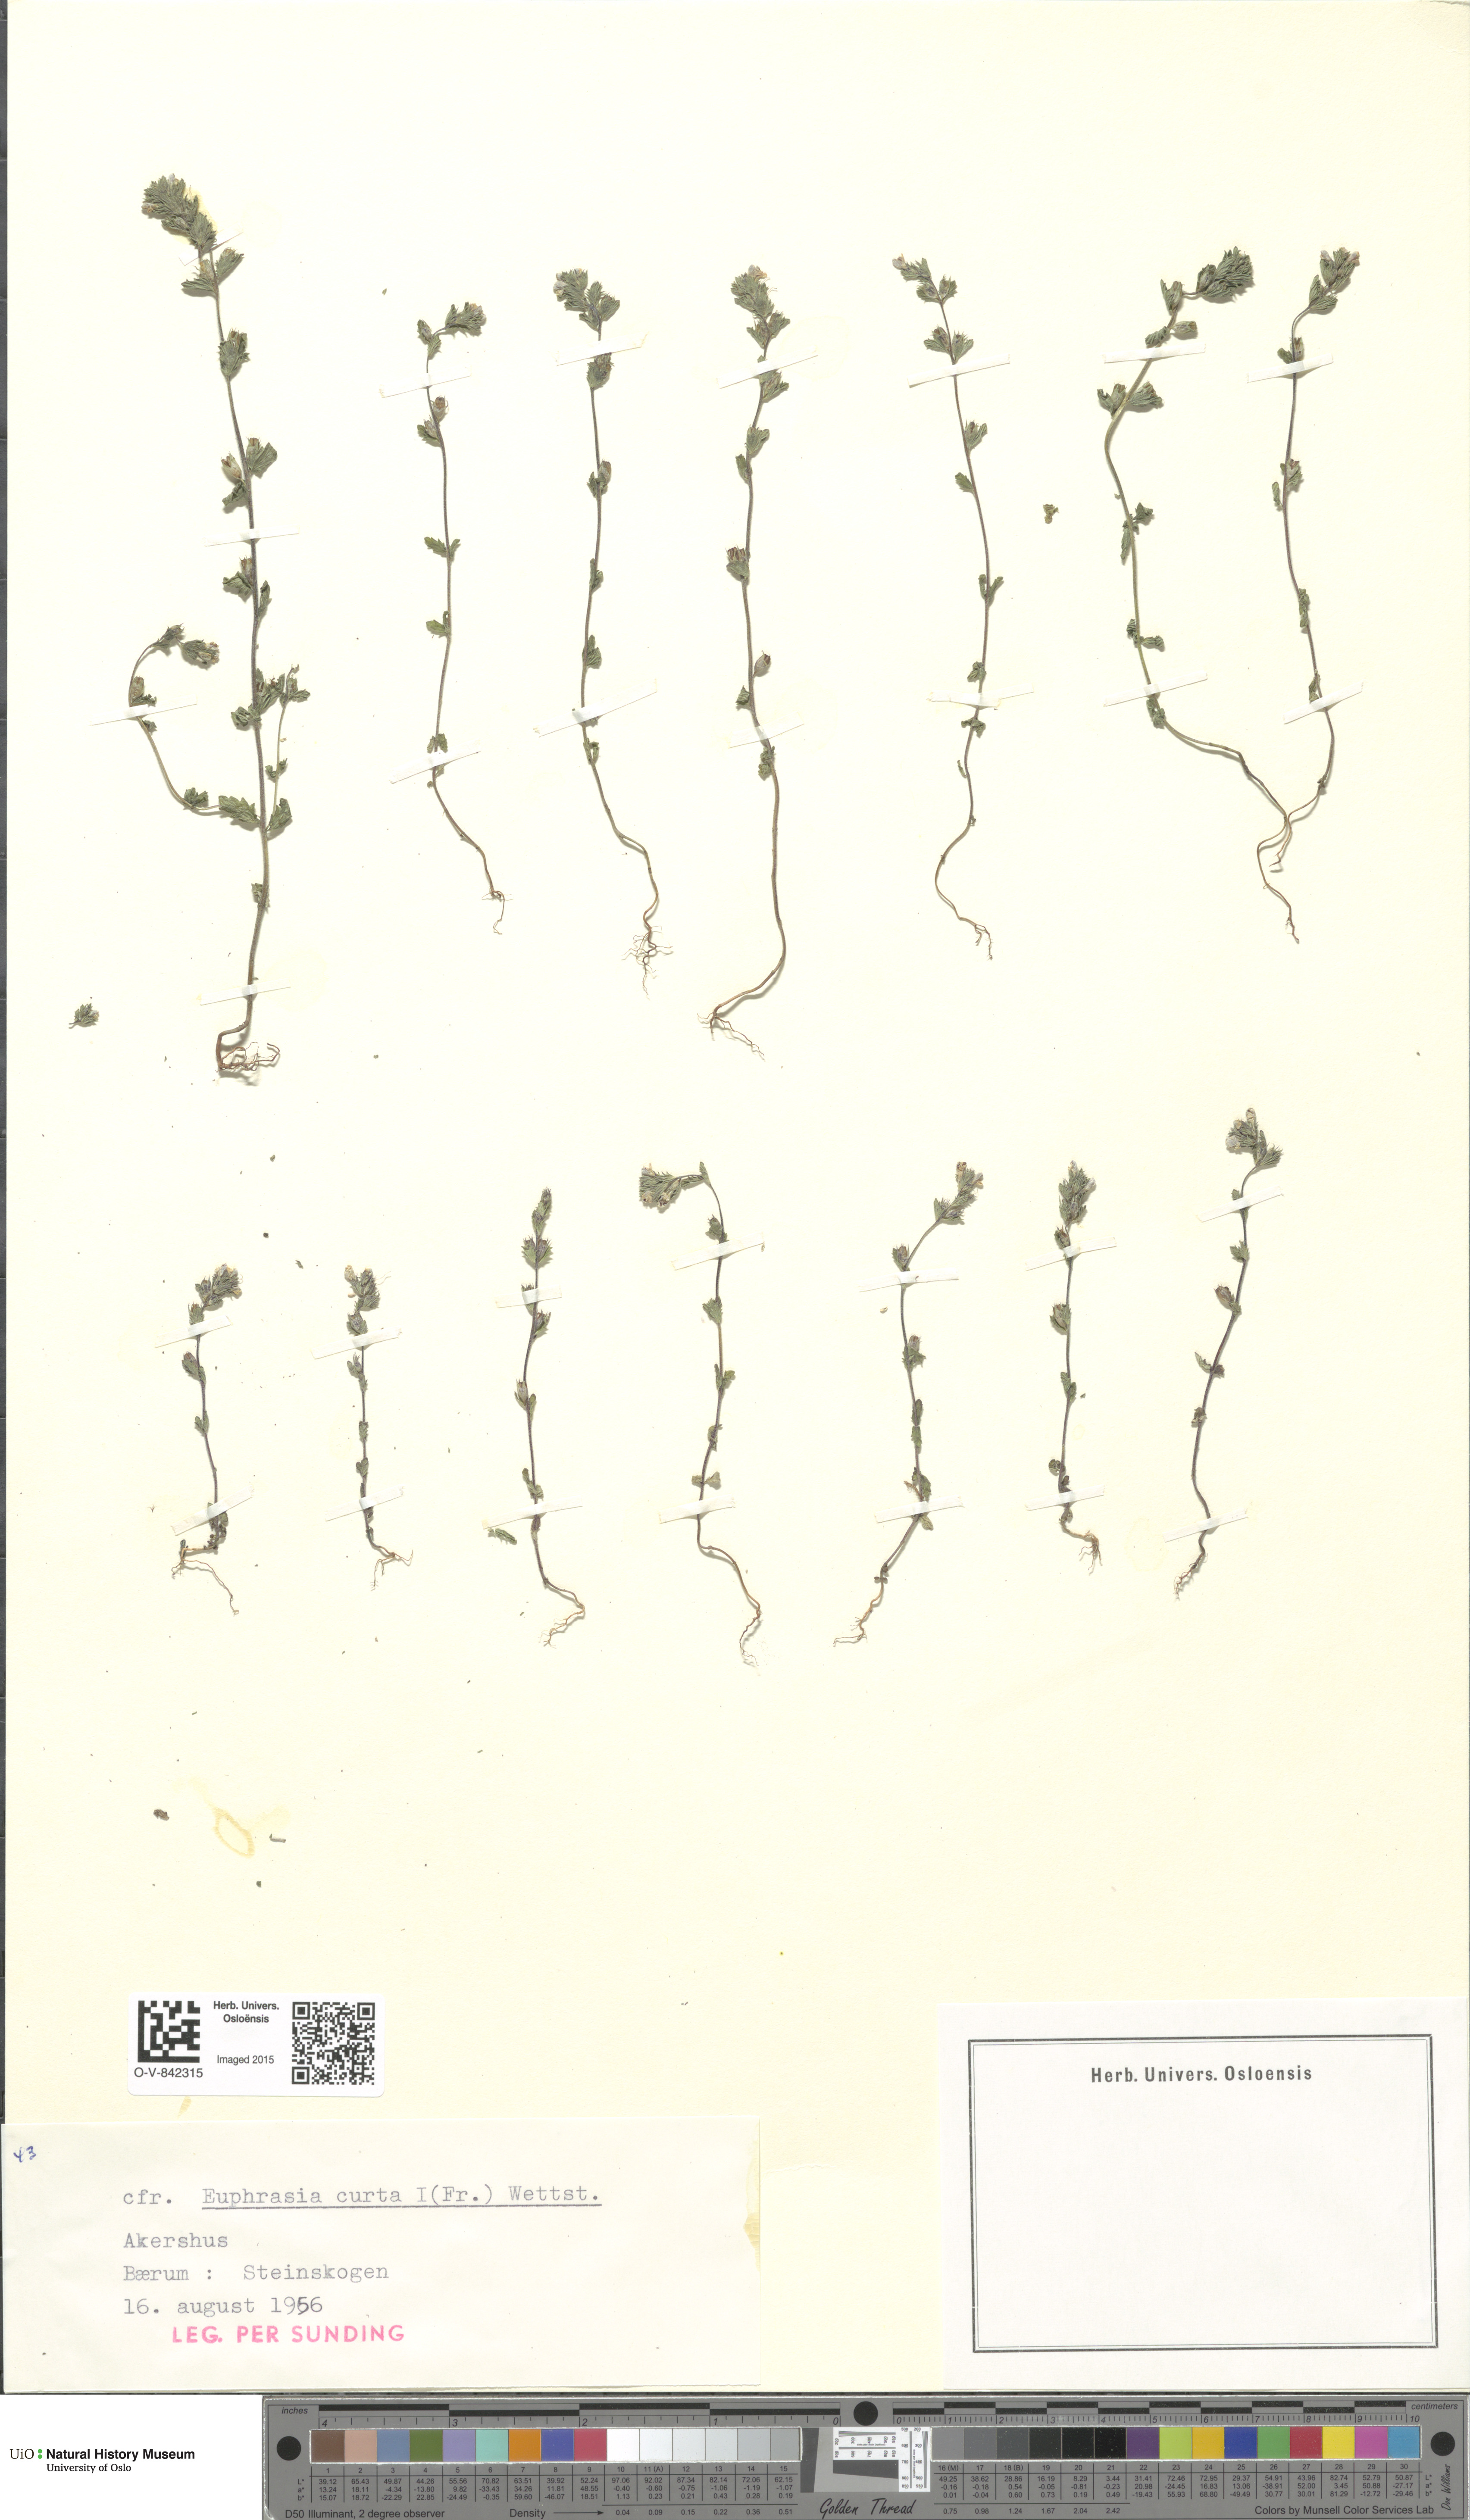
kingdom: Plantae
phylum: Tracheophyta
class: Magnoliopsida
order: Lamiales
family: Orobanchaceae
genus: Euphrasia
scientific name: Euphrasia micrantha
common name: Northern eyebright
